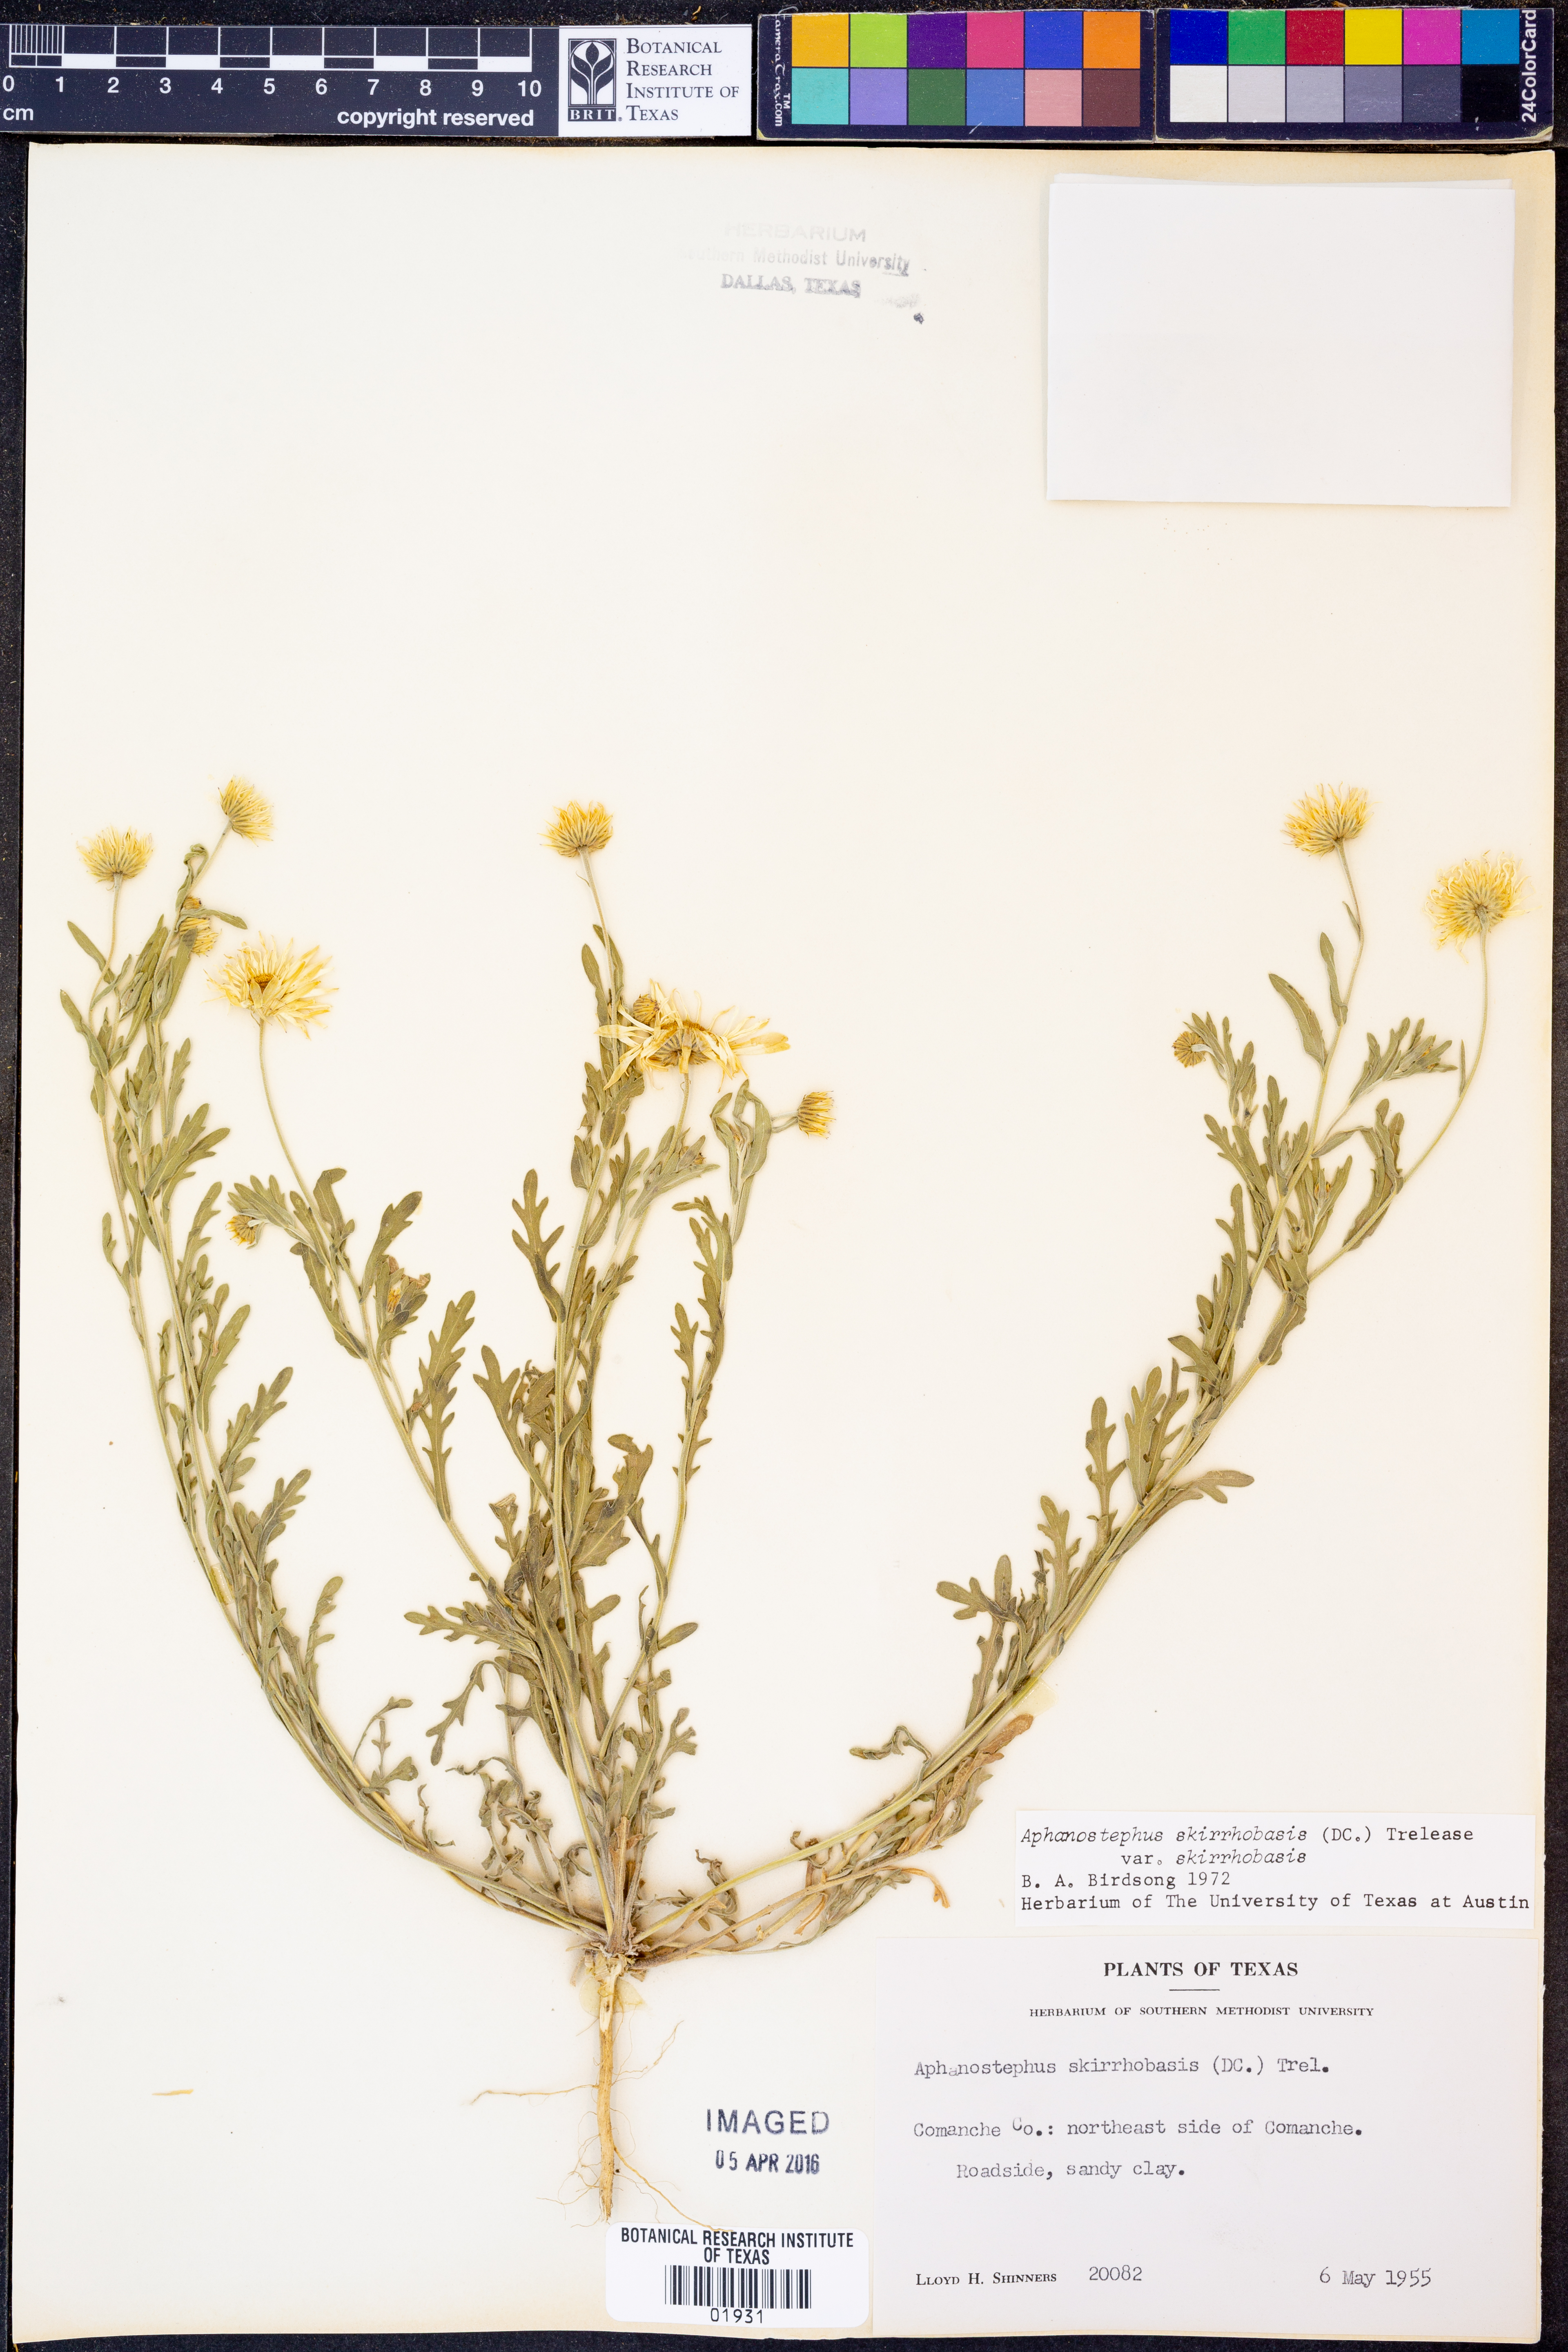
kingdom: Plantae
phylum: Tracheophyta
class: Magnoliopsida
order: Asterales
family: Asteraceae
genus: Aphanostephus
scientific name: Aphanostephus skirrhobasis
